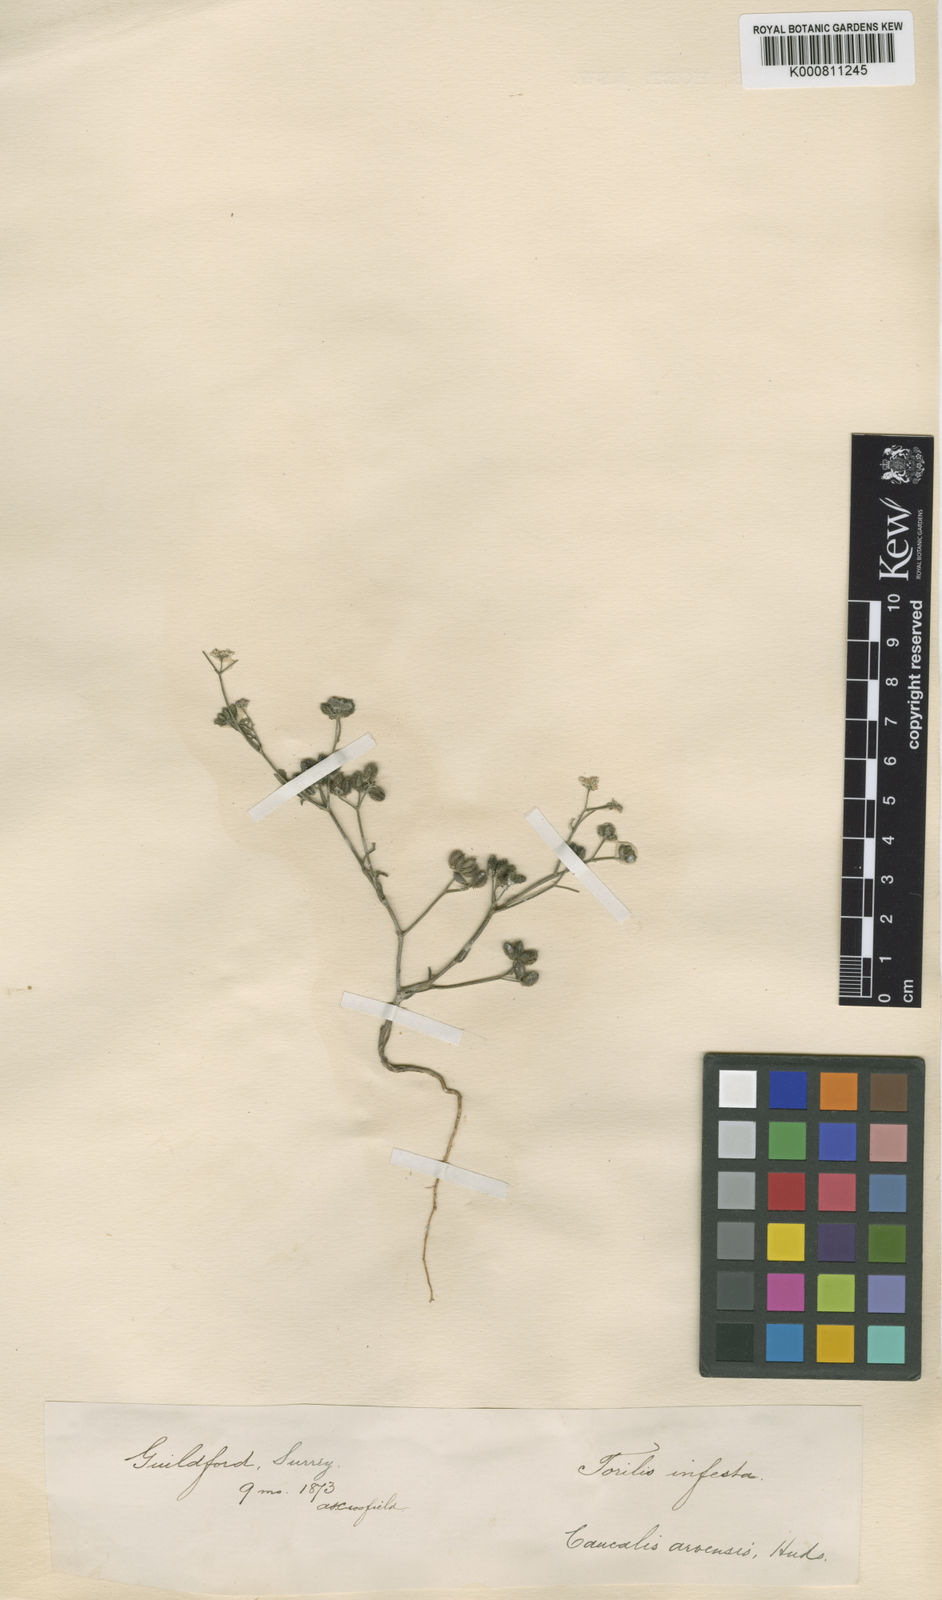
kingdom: Plantae
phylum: Tracheophyta
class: Magnoliopsida
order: Apiales
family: Apiaceae
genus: Torilis
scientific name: Torilis arvensis
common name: Spreading hedge-parsley
